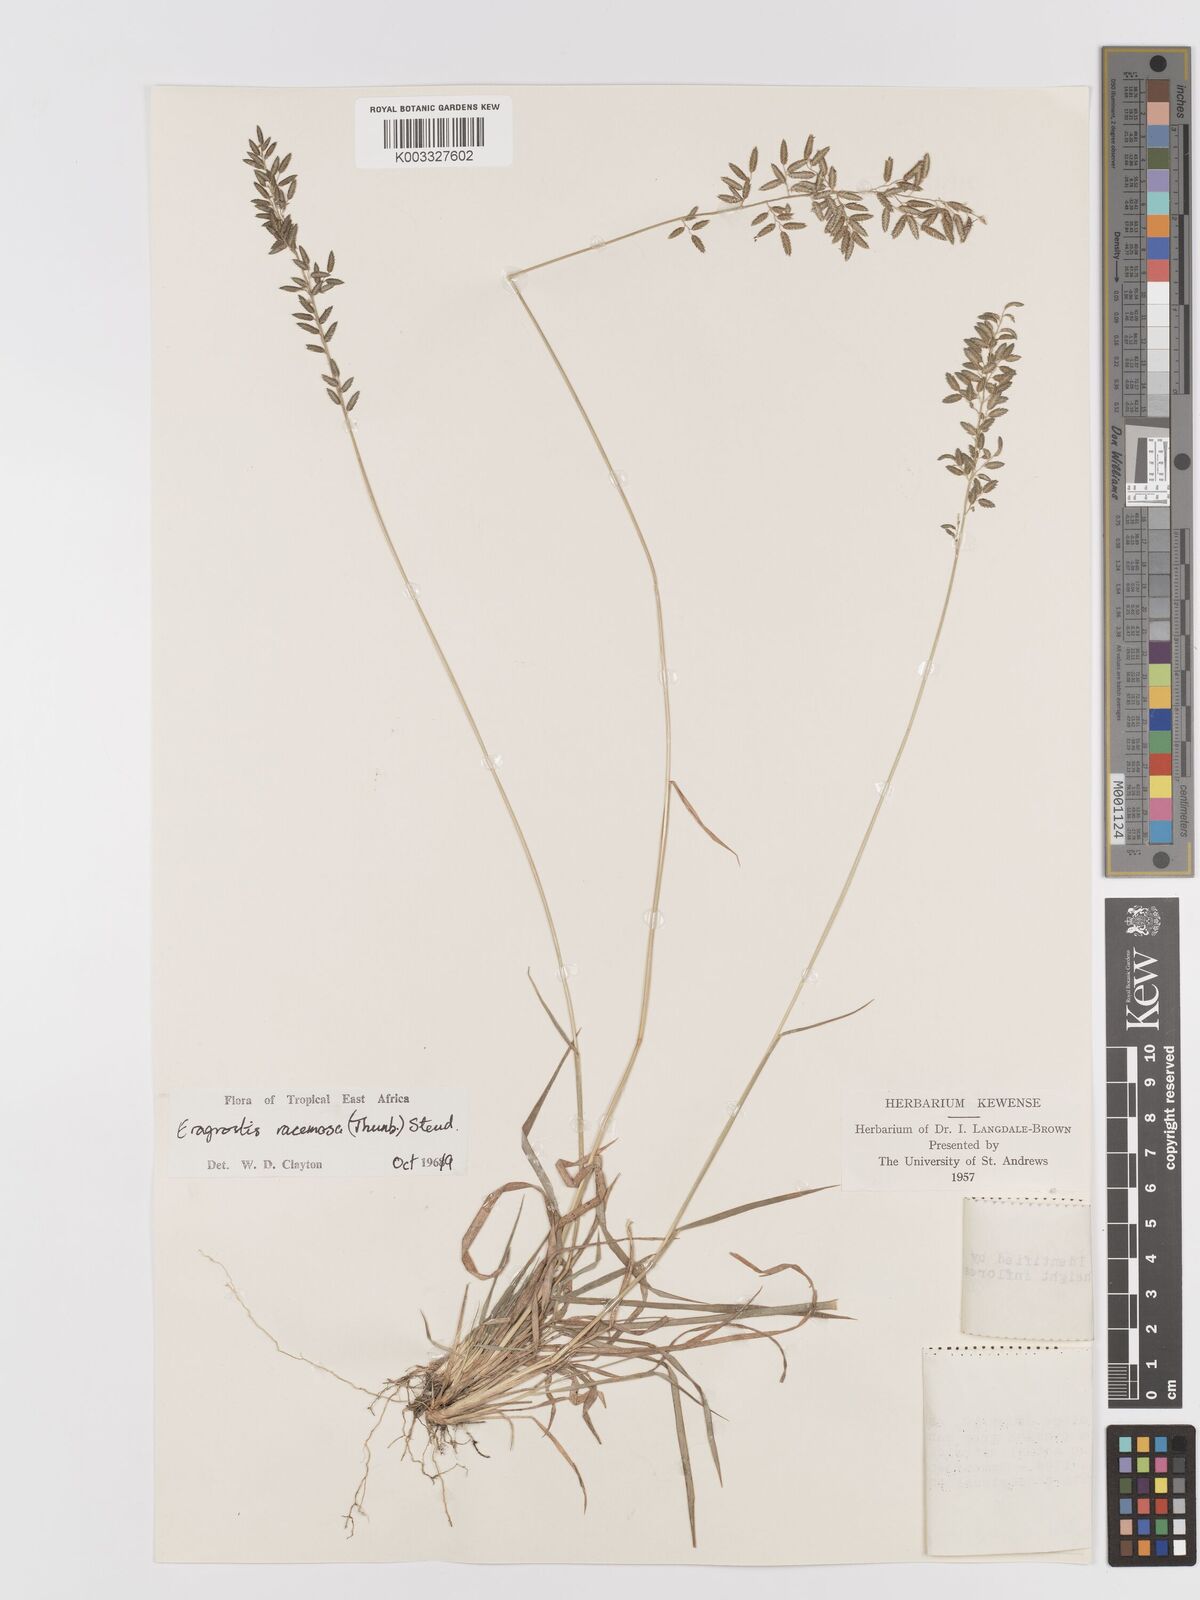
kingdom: Plantae
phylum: Tracheophyta
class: Liliopsida
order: Poales
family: Poaceae
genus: Eragrostis
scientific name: Eragrostis racemosa
